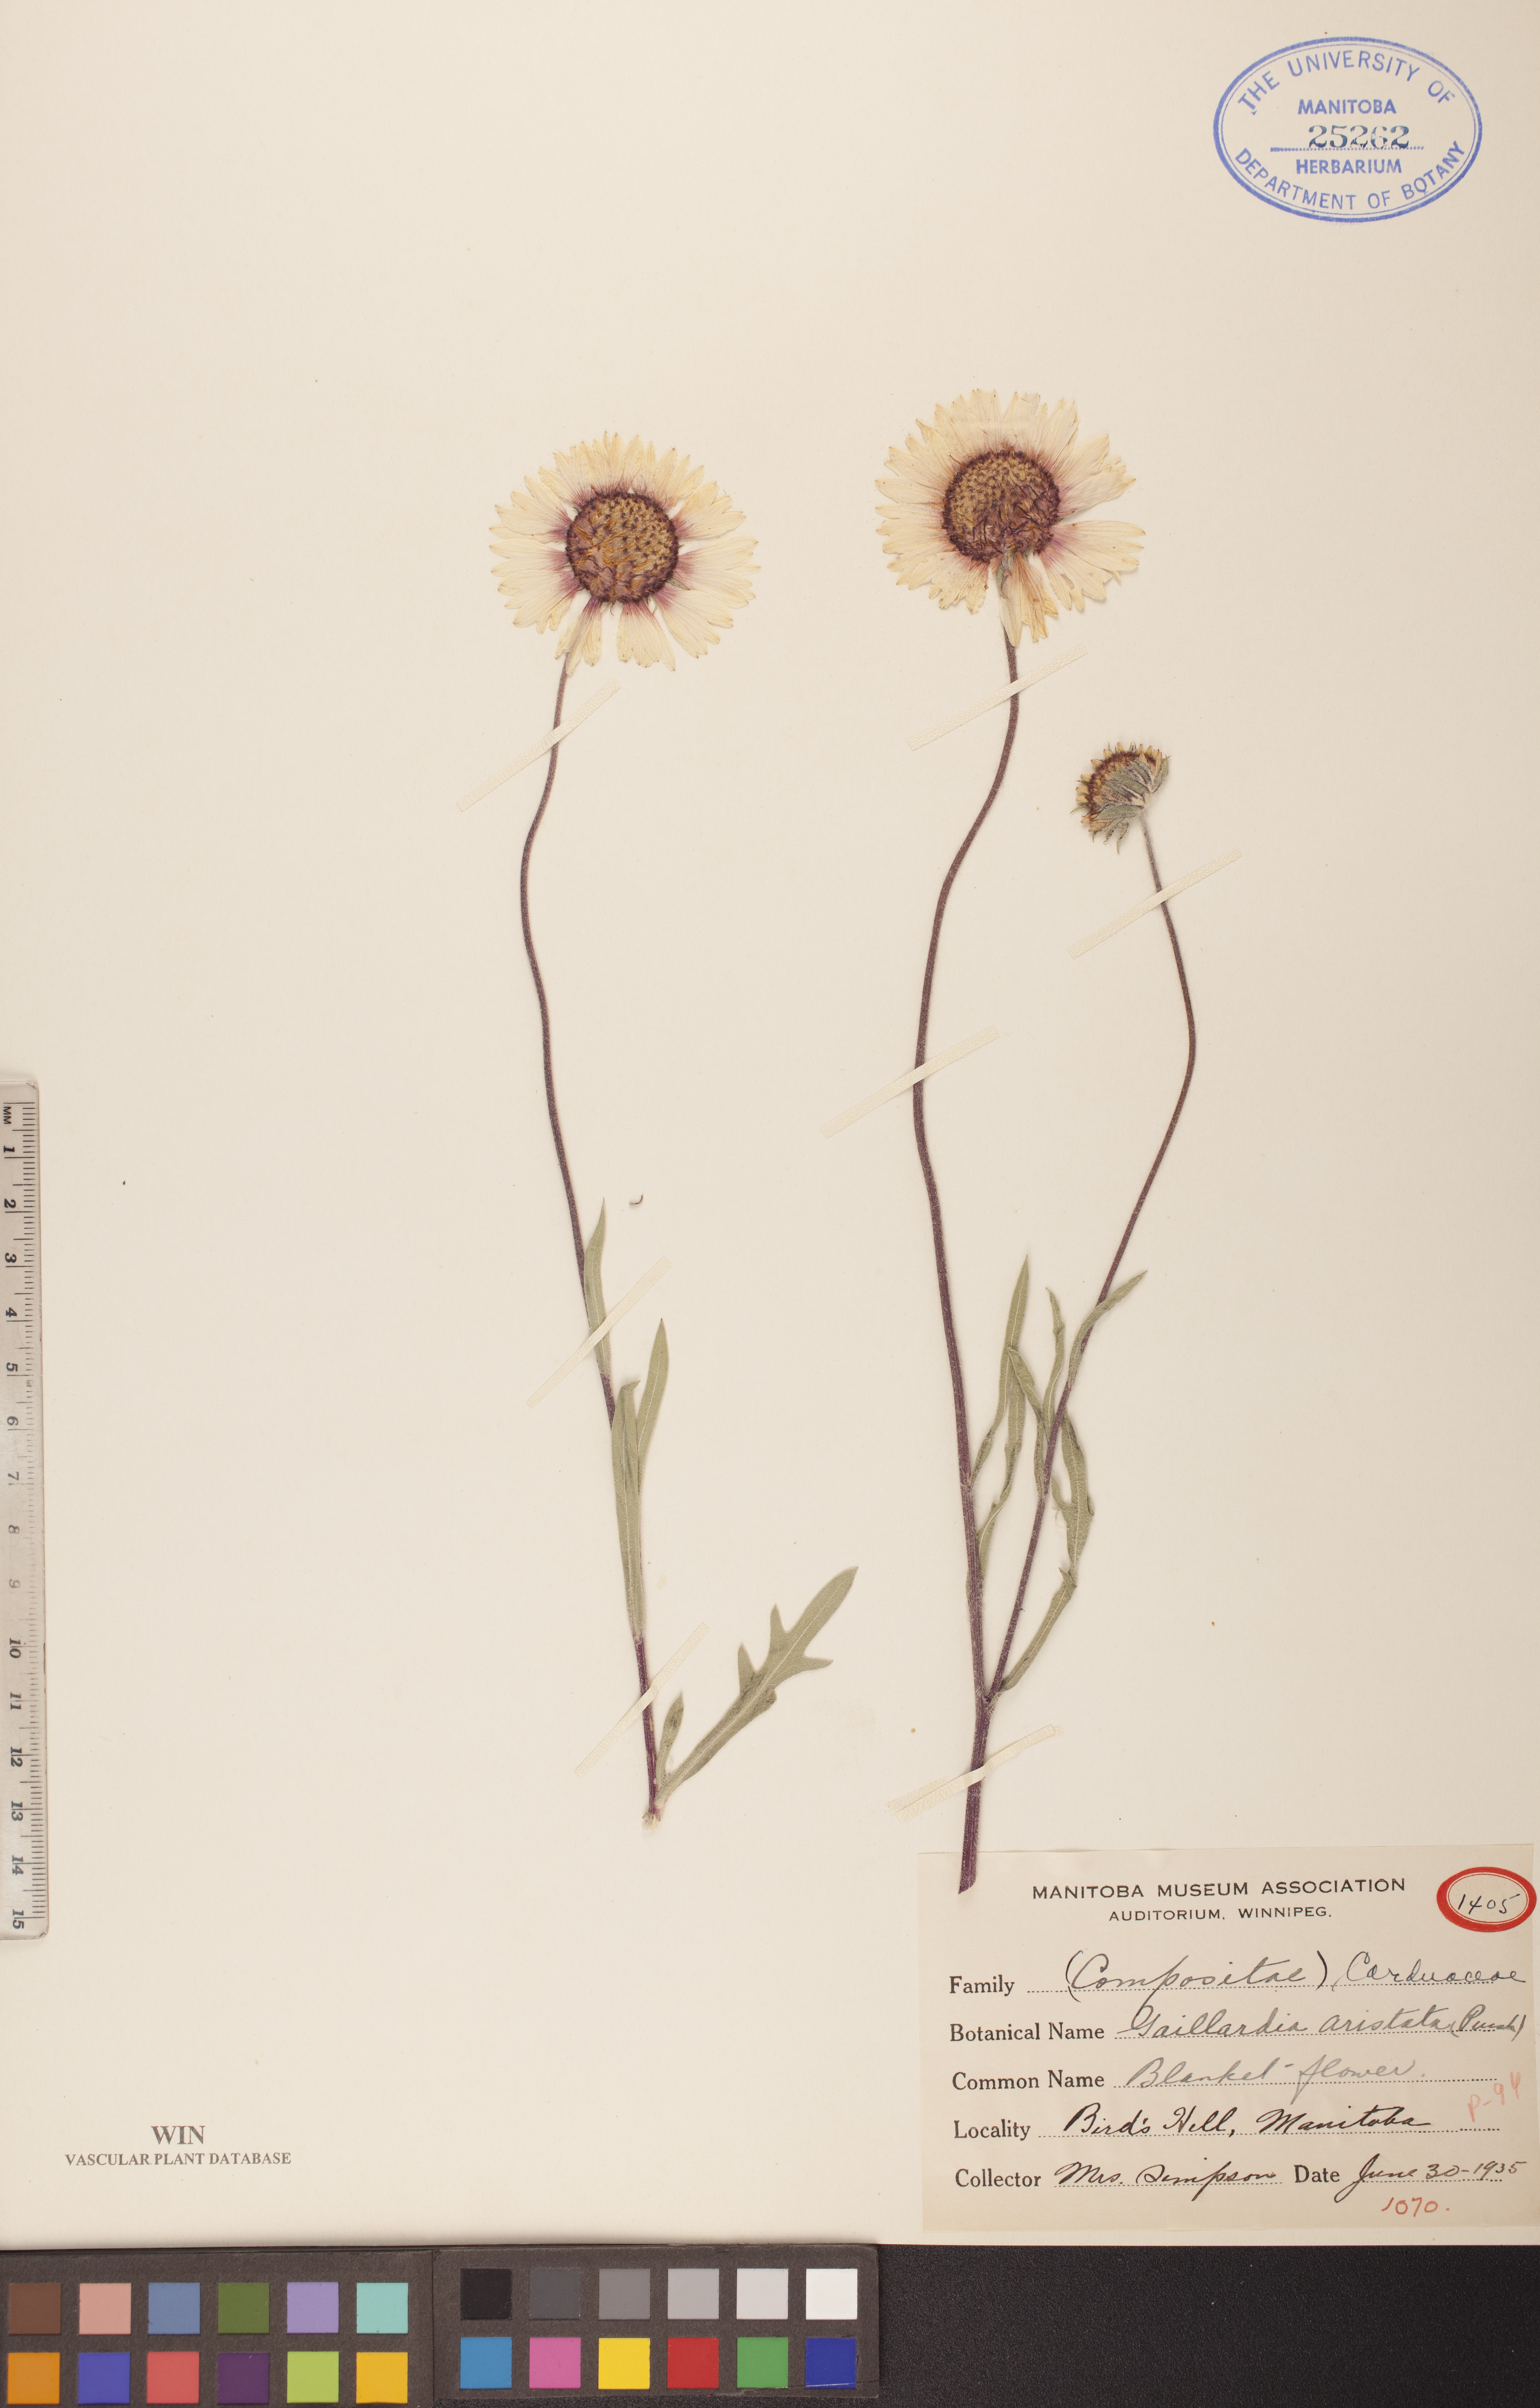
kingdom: Plantae
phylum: Tracheophyta
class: Magnoliopsida
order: Asterales
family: Asteraceae
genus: Gaillardia
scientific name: Gaillardia aristata
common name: Blanket-flower
